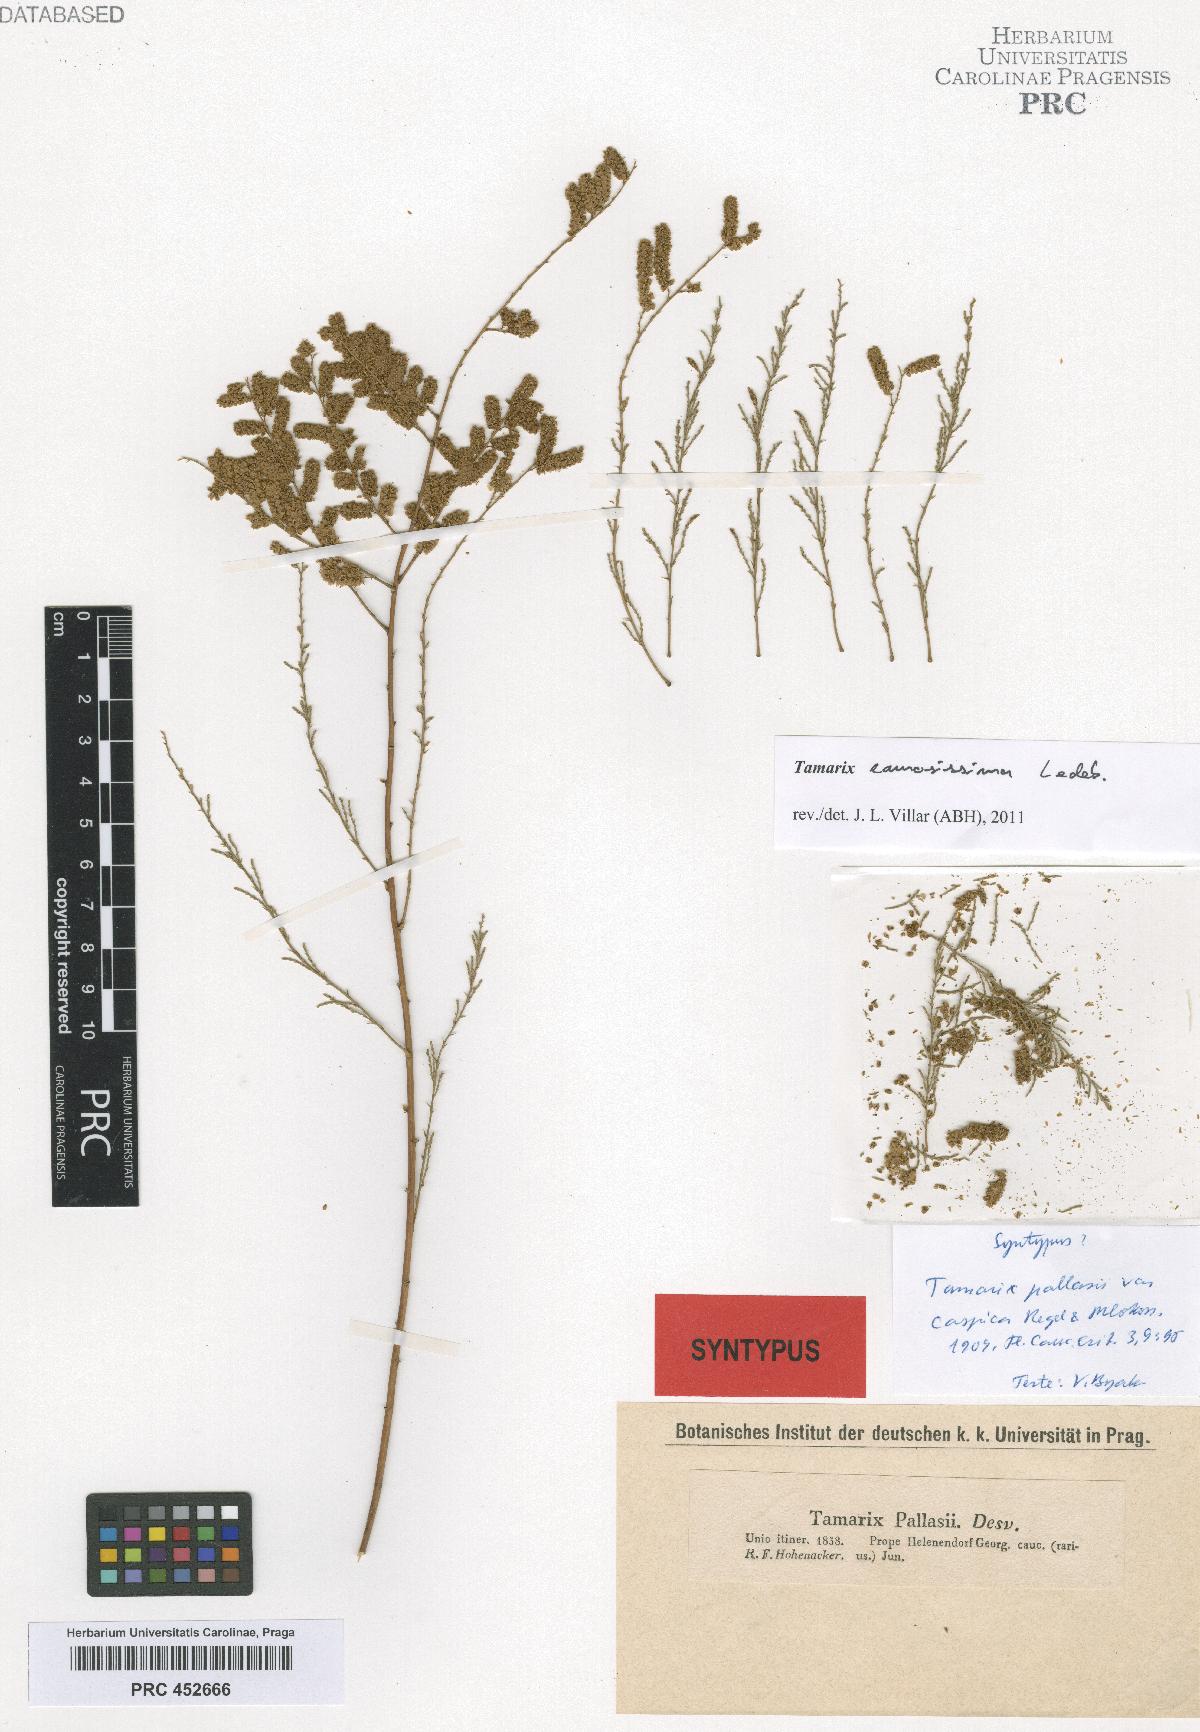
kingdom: Plantae
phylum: Tracheophyta
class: Magnoliopsida
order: Caryophyllales
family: Tamaricaceae
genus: Tamarix
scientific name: Tamarix ramosissima
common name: Pink tamarisk
